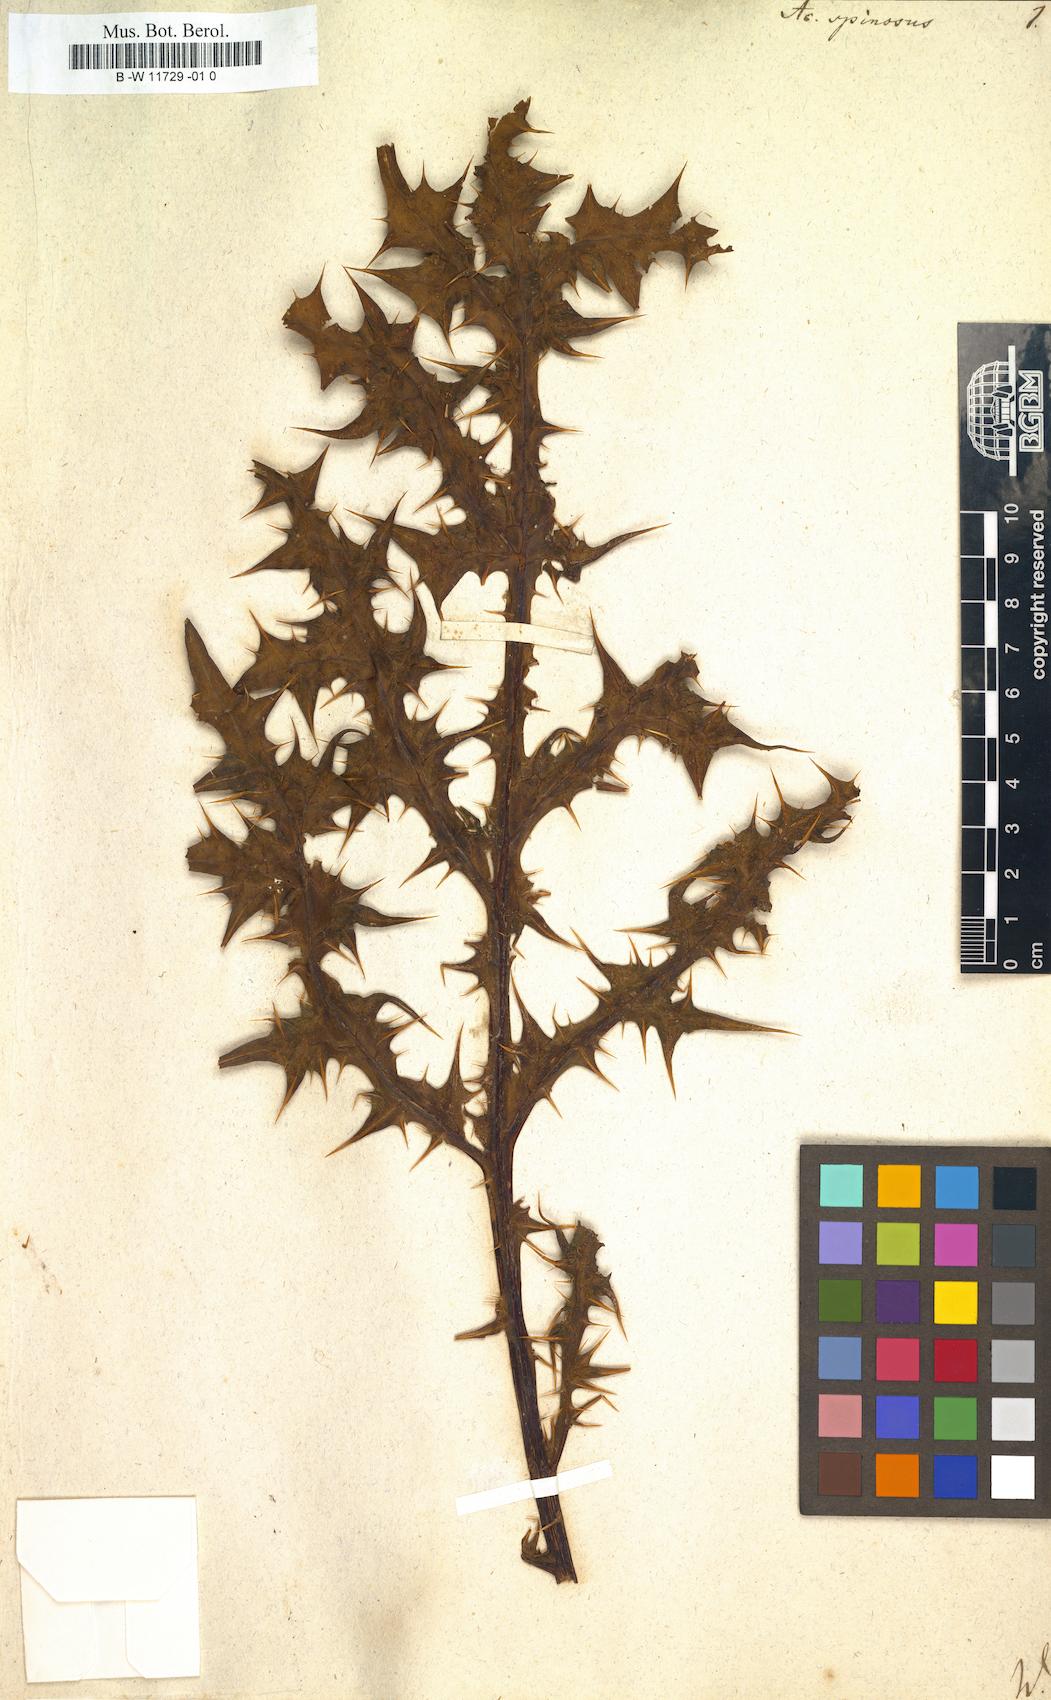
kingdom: Plantae
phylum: Tracheophyta
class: Magnoliopsida
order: Lamiales
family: Acanthaceae
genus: Acanthus
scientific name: Acanthus spinosus
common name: Spiny bear's-breech
